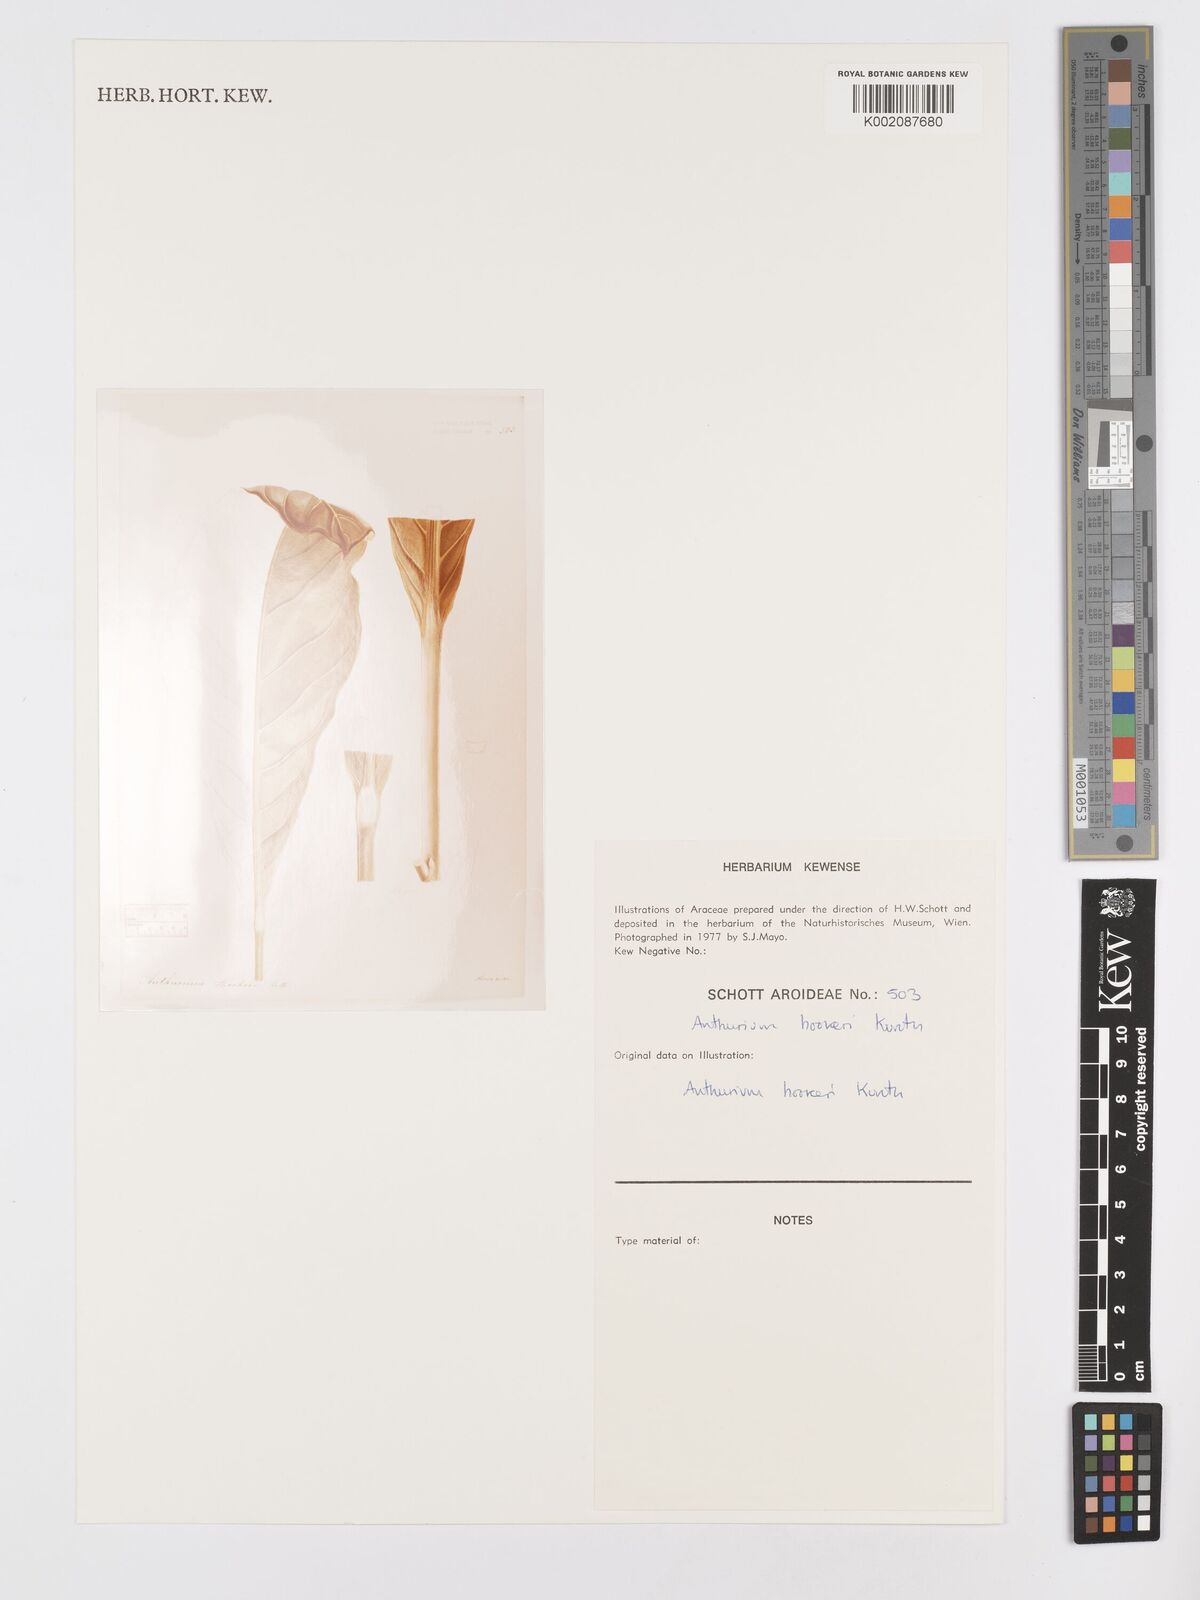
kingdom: Plantae
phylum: Tracheophyta
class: Liliopsida
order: Alismatales
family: Araceae
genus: Anthurium
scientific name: Anthurium hookeri
